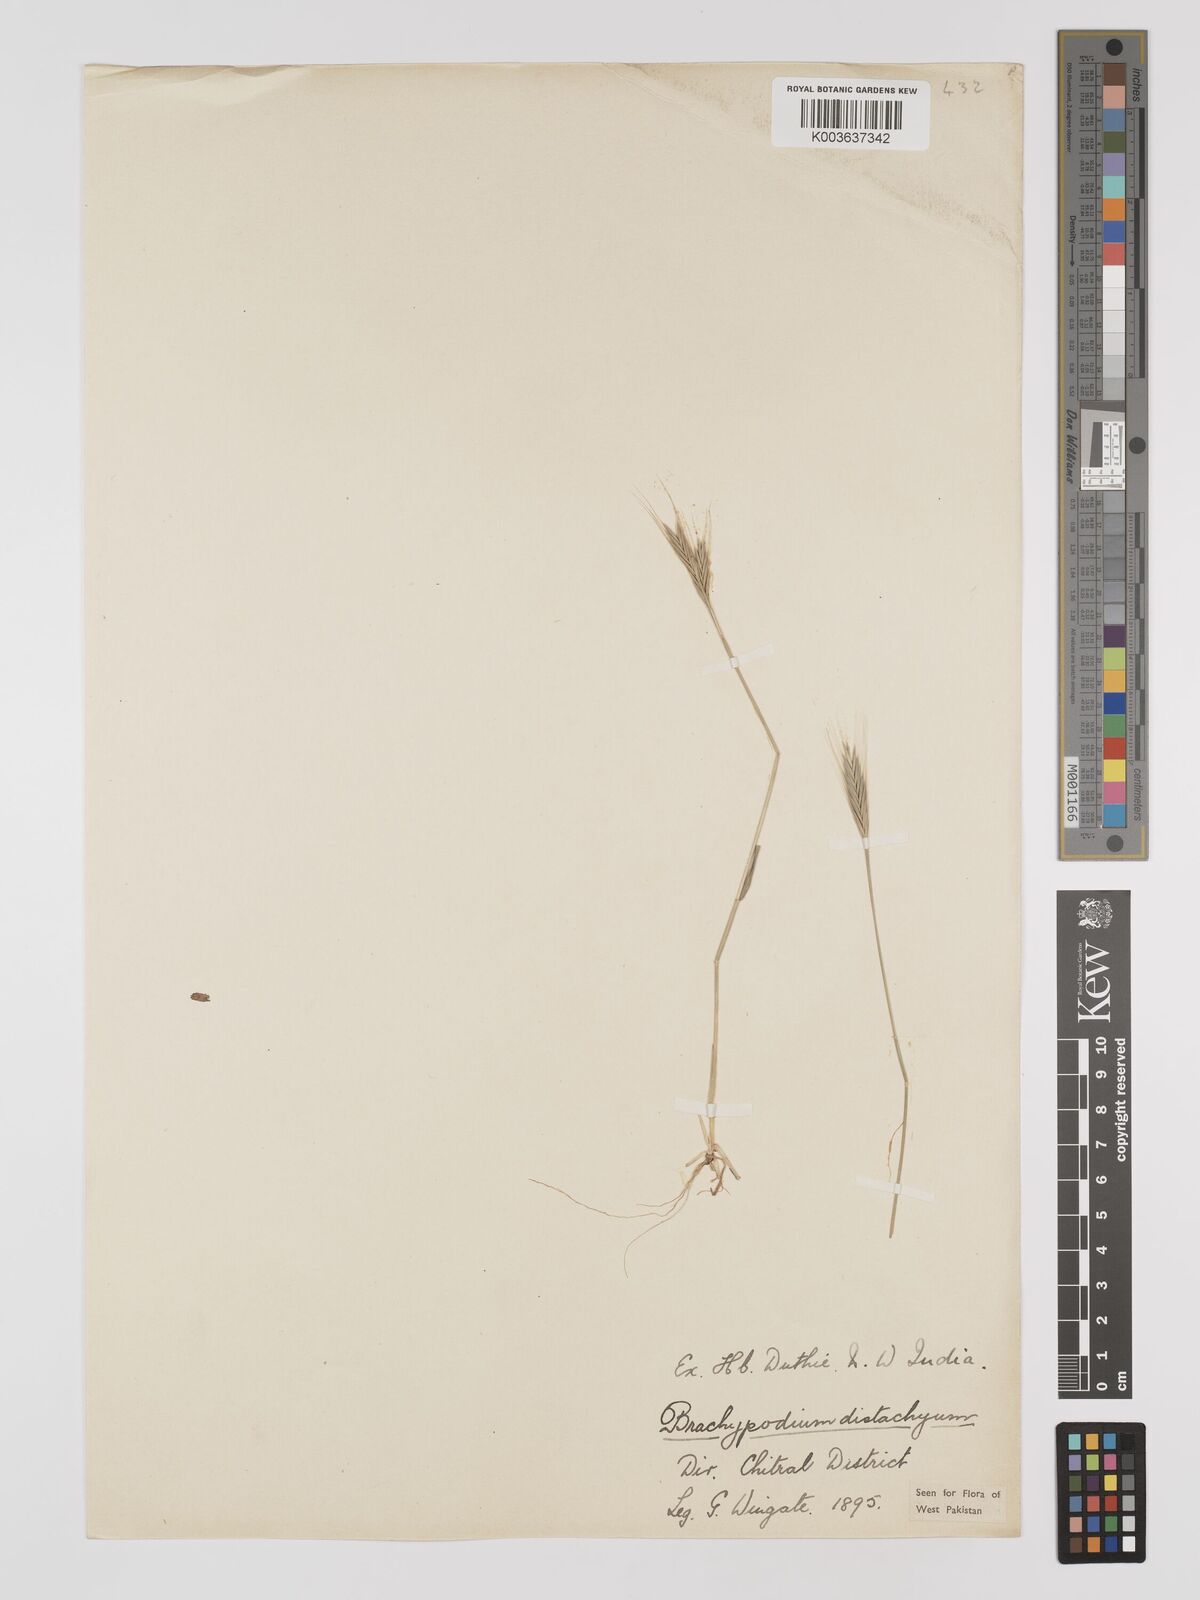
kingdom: Plantae
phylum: Tracheophyta
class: Liliopsida
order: Poales
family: Poaceae
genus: Brachypodium
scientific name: Brachypodium distachyon
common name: Stiff brome
